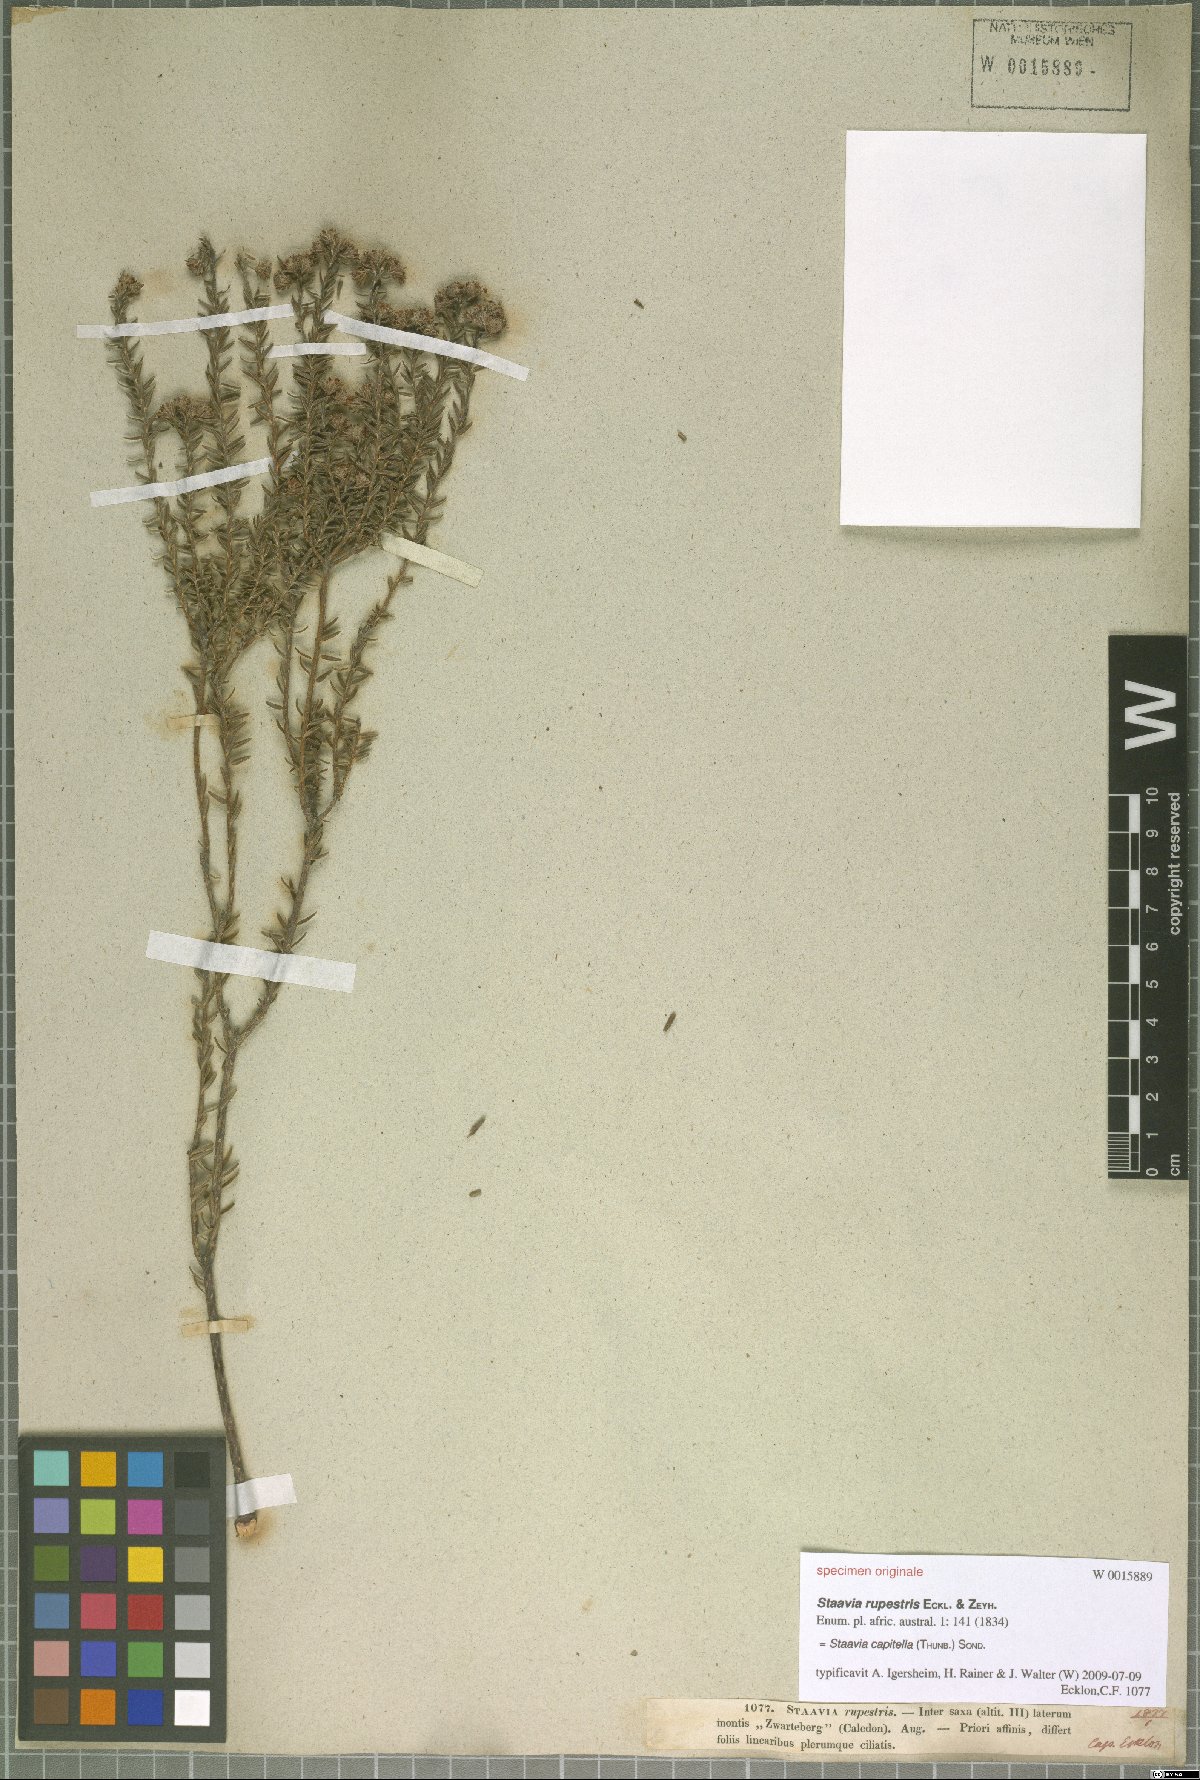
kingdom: Plantae
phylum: Tracheophyta
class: Magnoliopsida
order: Bruniales
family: Bruniaceae
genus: Staavia
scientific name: Staavia capitella
